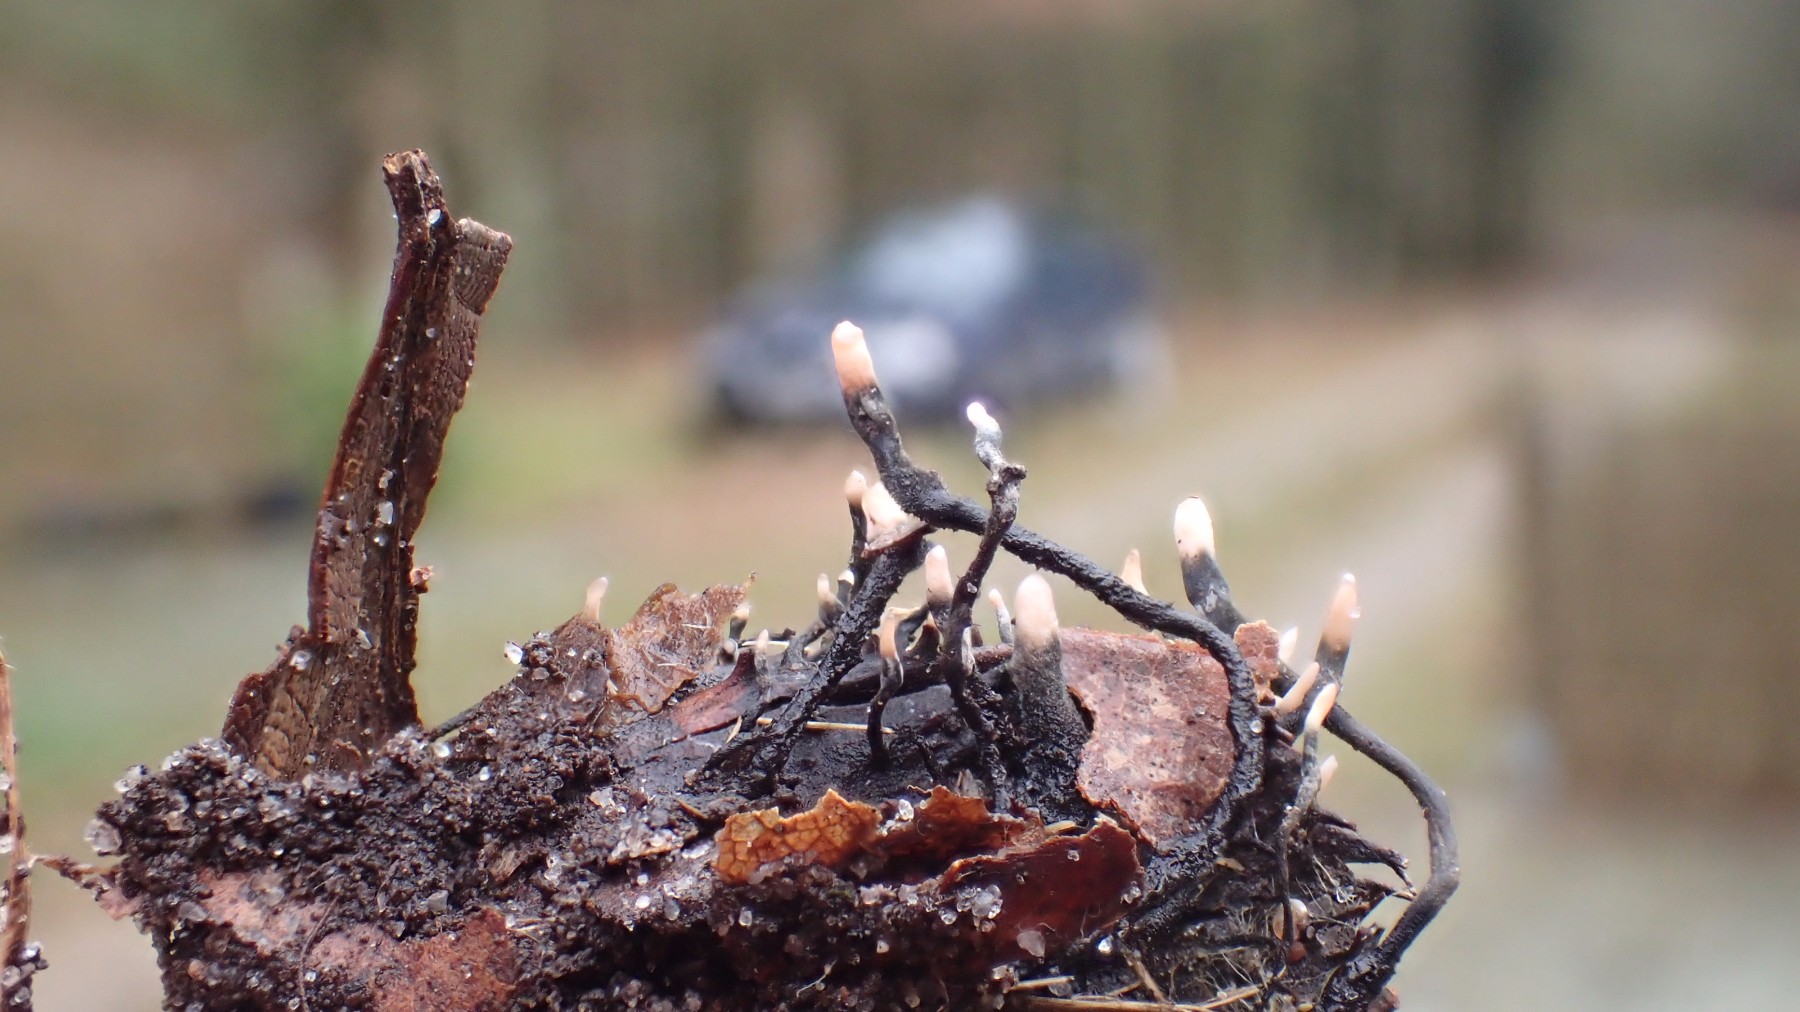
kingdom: Fungi
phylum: Ascomycota
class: Sordariomycetes
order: Xylariales
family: Xylariaceae
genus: Xylaria
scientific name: Xylaria carpophila
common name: bogskål-stødsvamp
